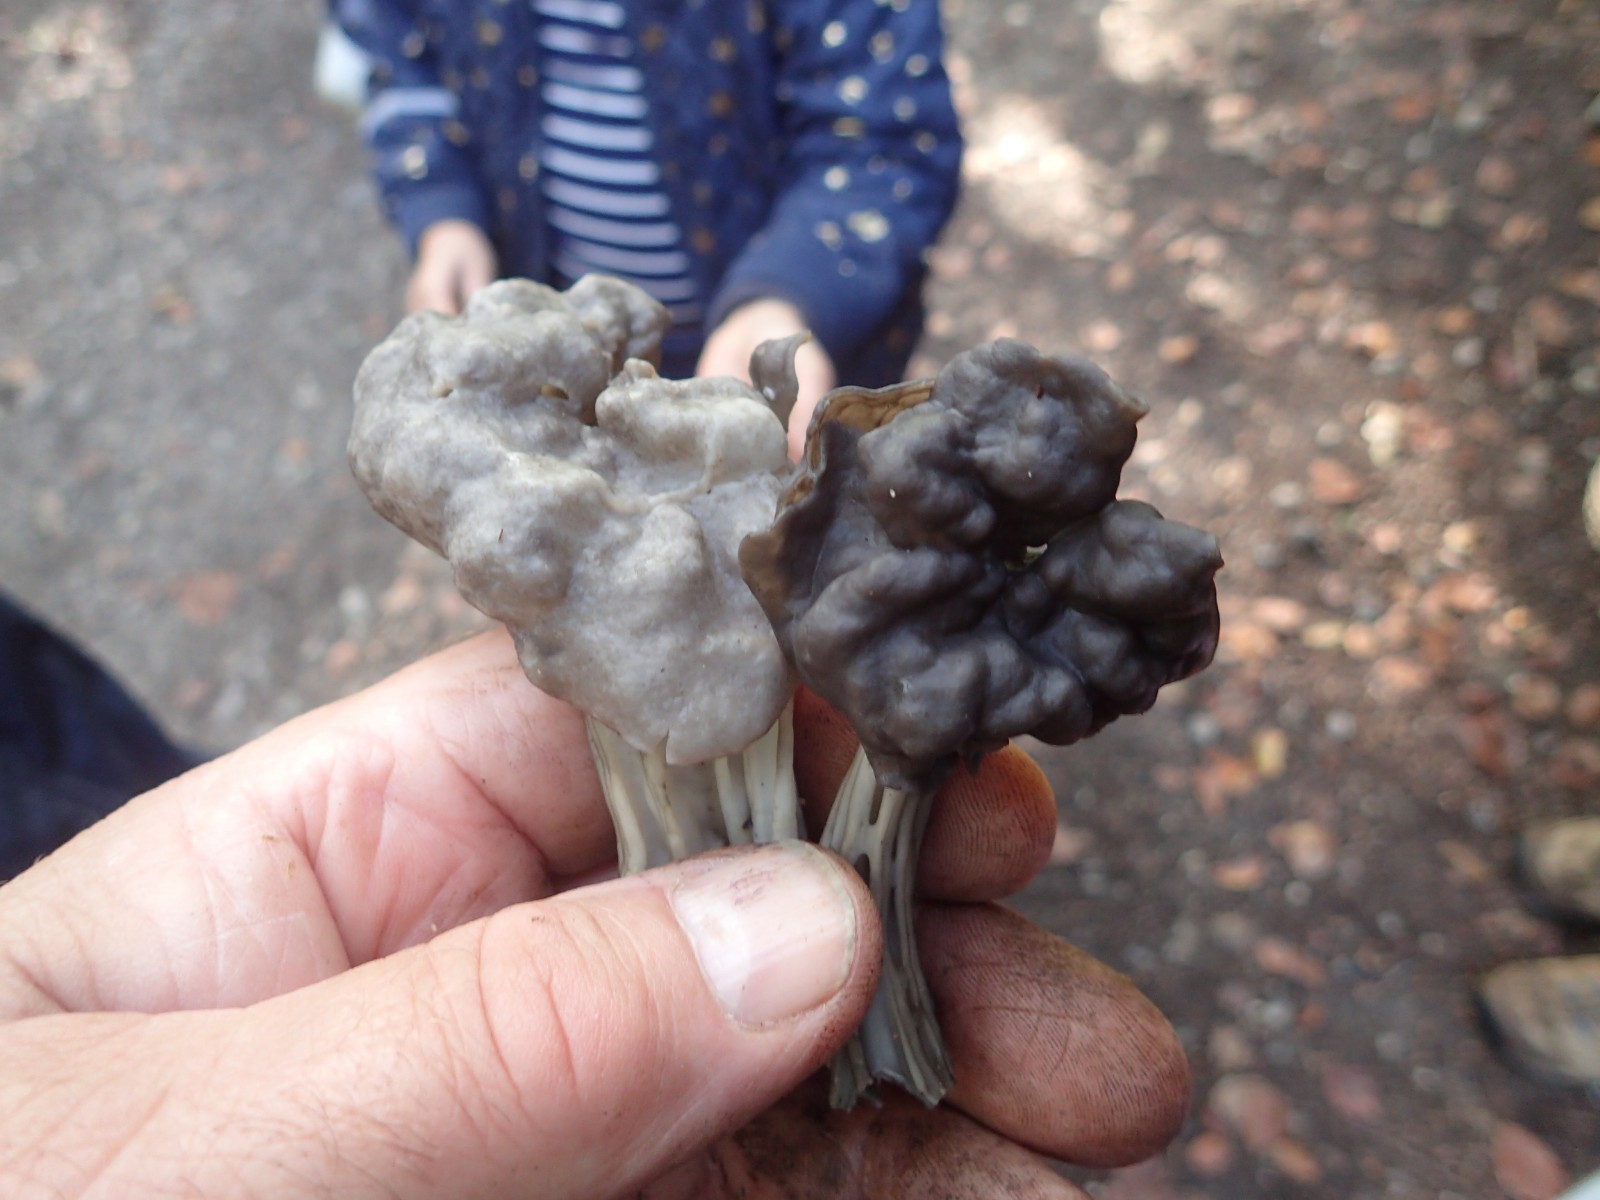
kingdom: Fungi
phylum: Ascomycota
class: Pezizomycetes
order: Pezizales
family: Helvellaceae
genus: Helvella
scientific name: Helvella lacunosa
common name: grubet foldhat
